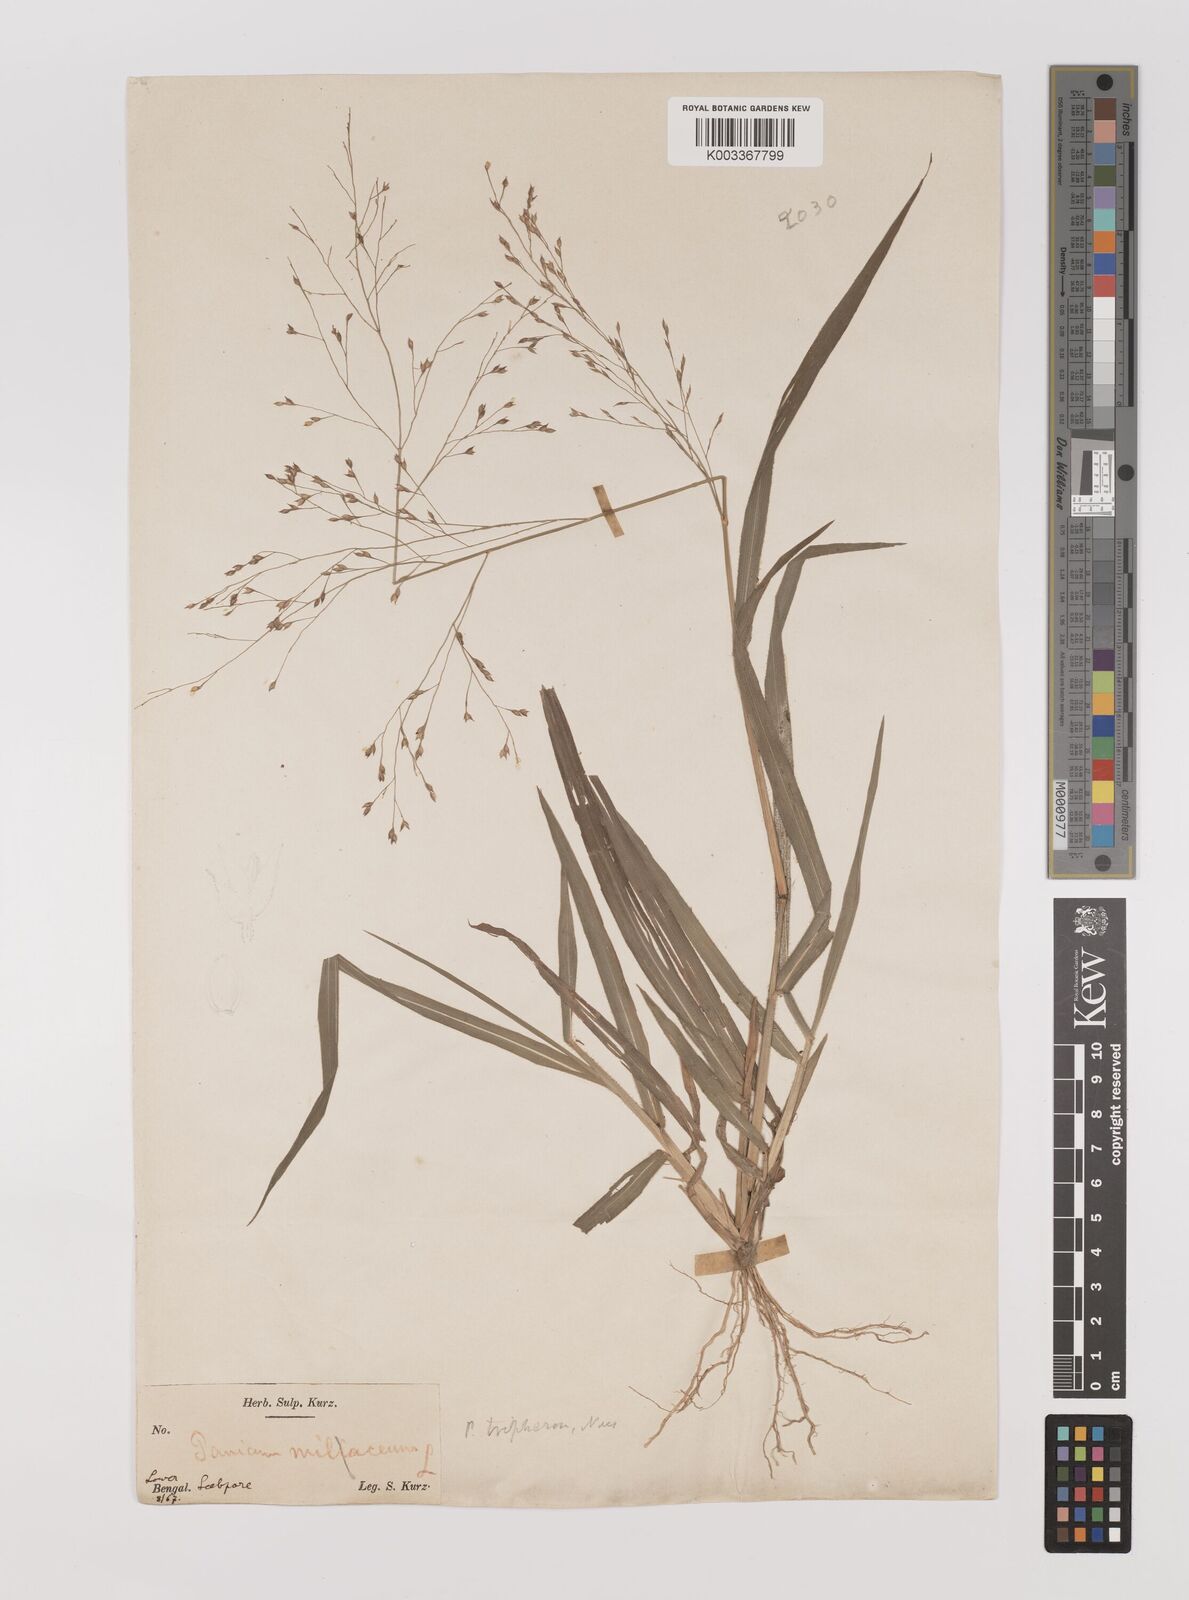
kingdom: Plantae
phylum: Tracheophyta
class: Liliopsida
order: Poales
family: Poaceae
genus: Panicum
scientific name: Panicum curviflorum
